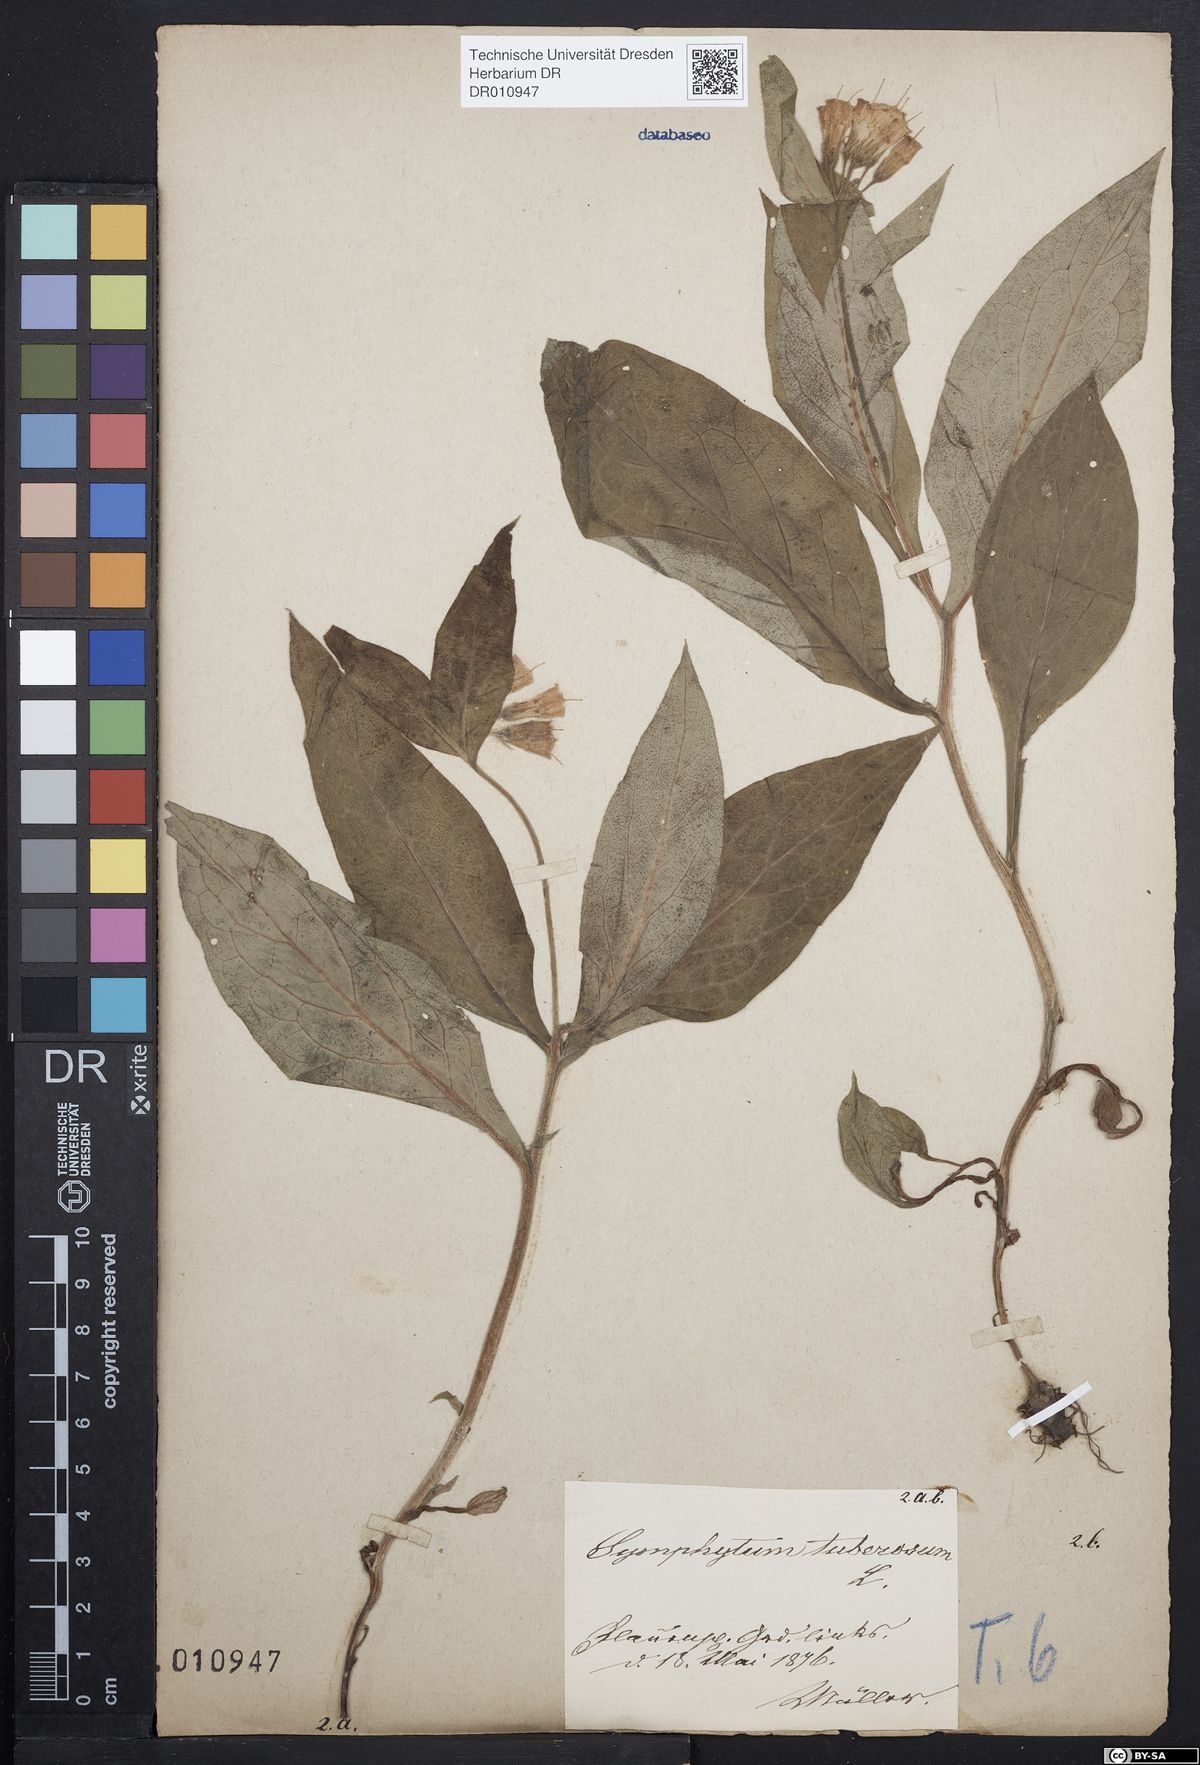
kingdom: Plantae
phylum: Tracheophyta
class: Magnoliopsida
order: Boraginales
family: Boraginaceae
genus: Symphytum
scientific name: Symphytum tuberosum
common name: Tuberous comfrey
